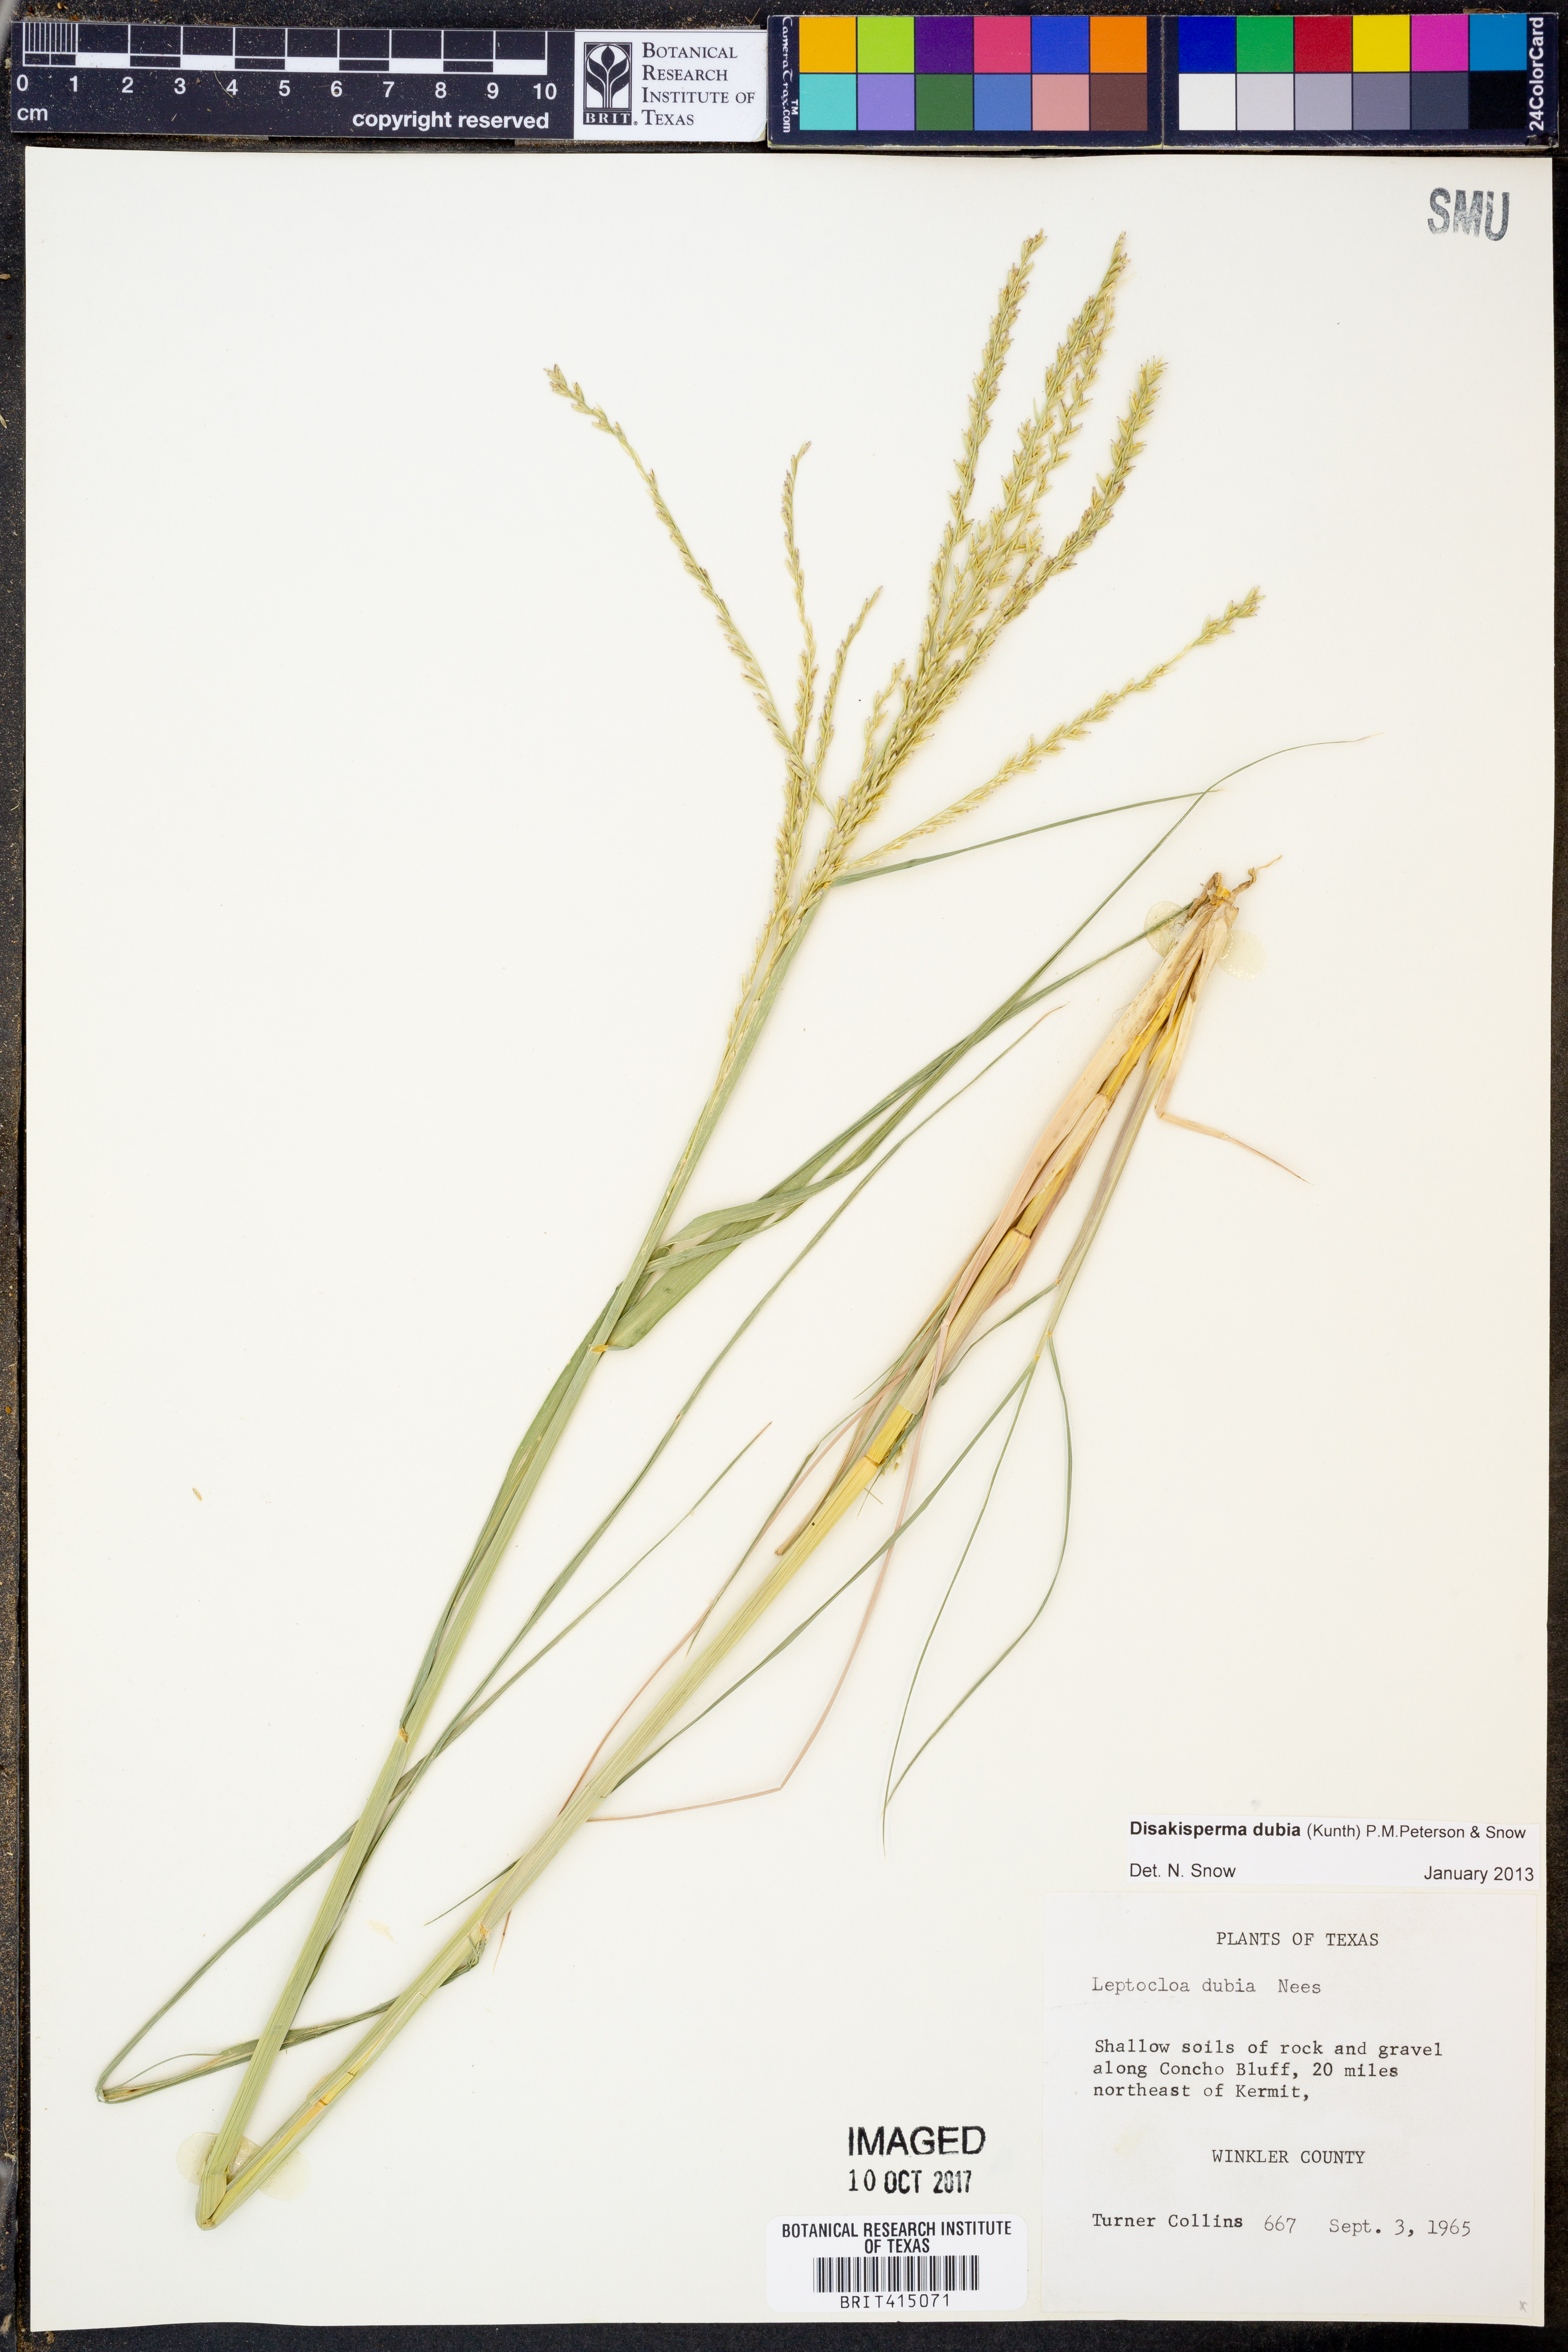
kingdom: Plantae
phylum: Tracheophyta
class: Liliopsida
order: Poales
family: Poaceae
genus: Disakisperma
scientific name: Disakisperma dubium
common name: Green sprangletop
